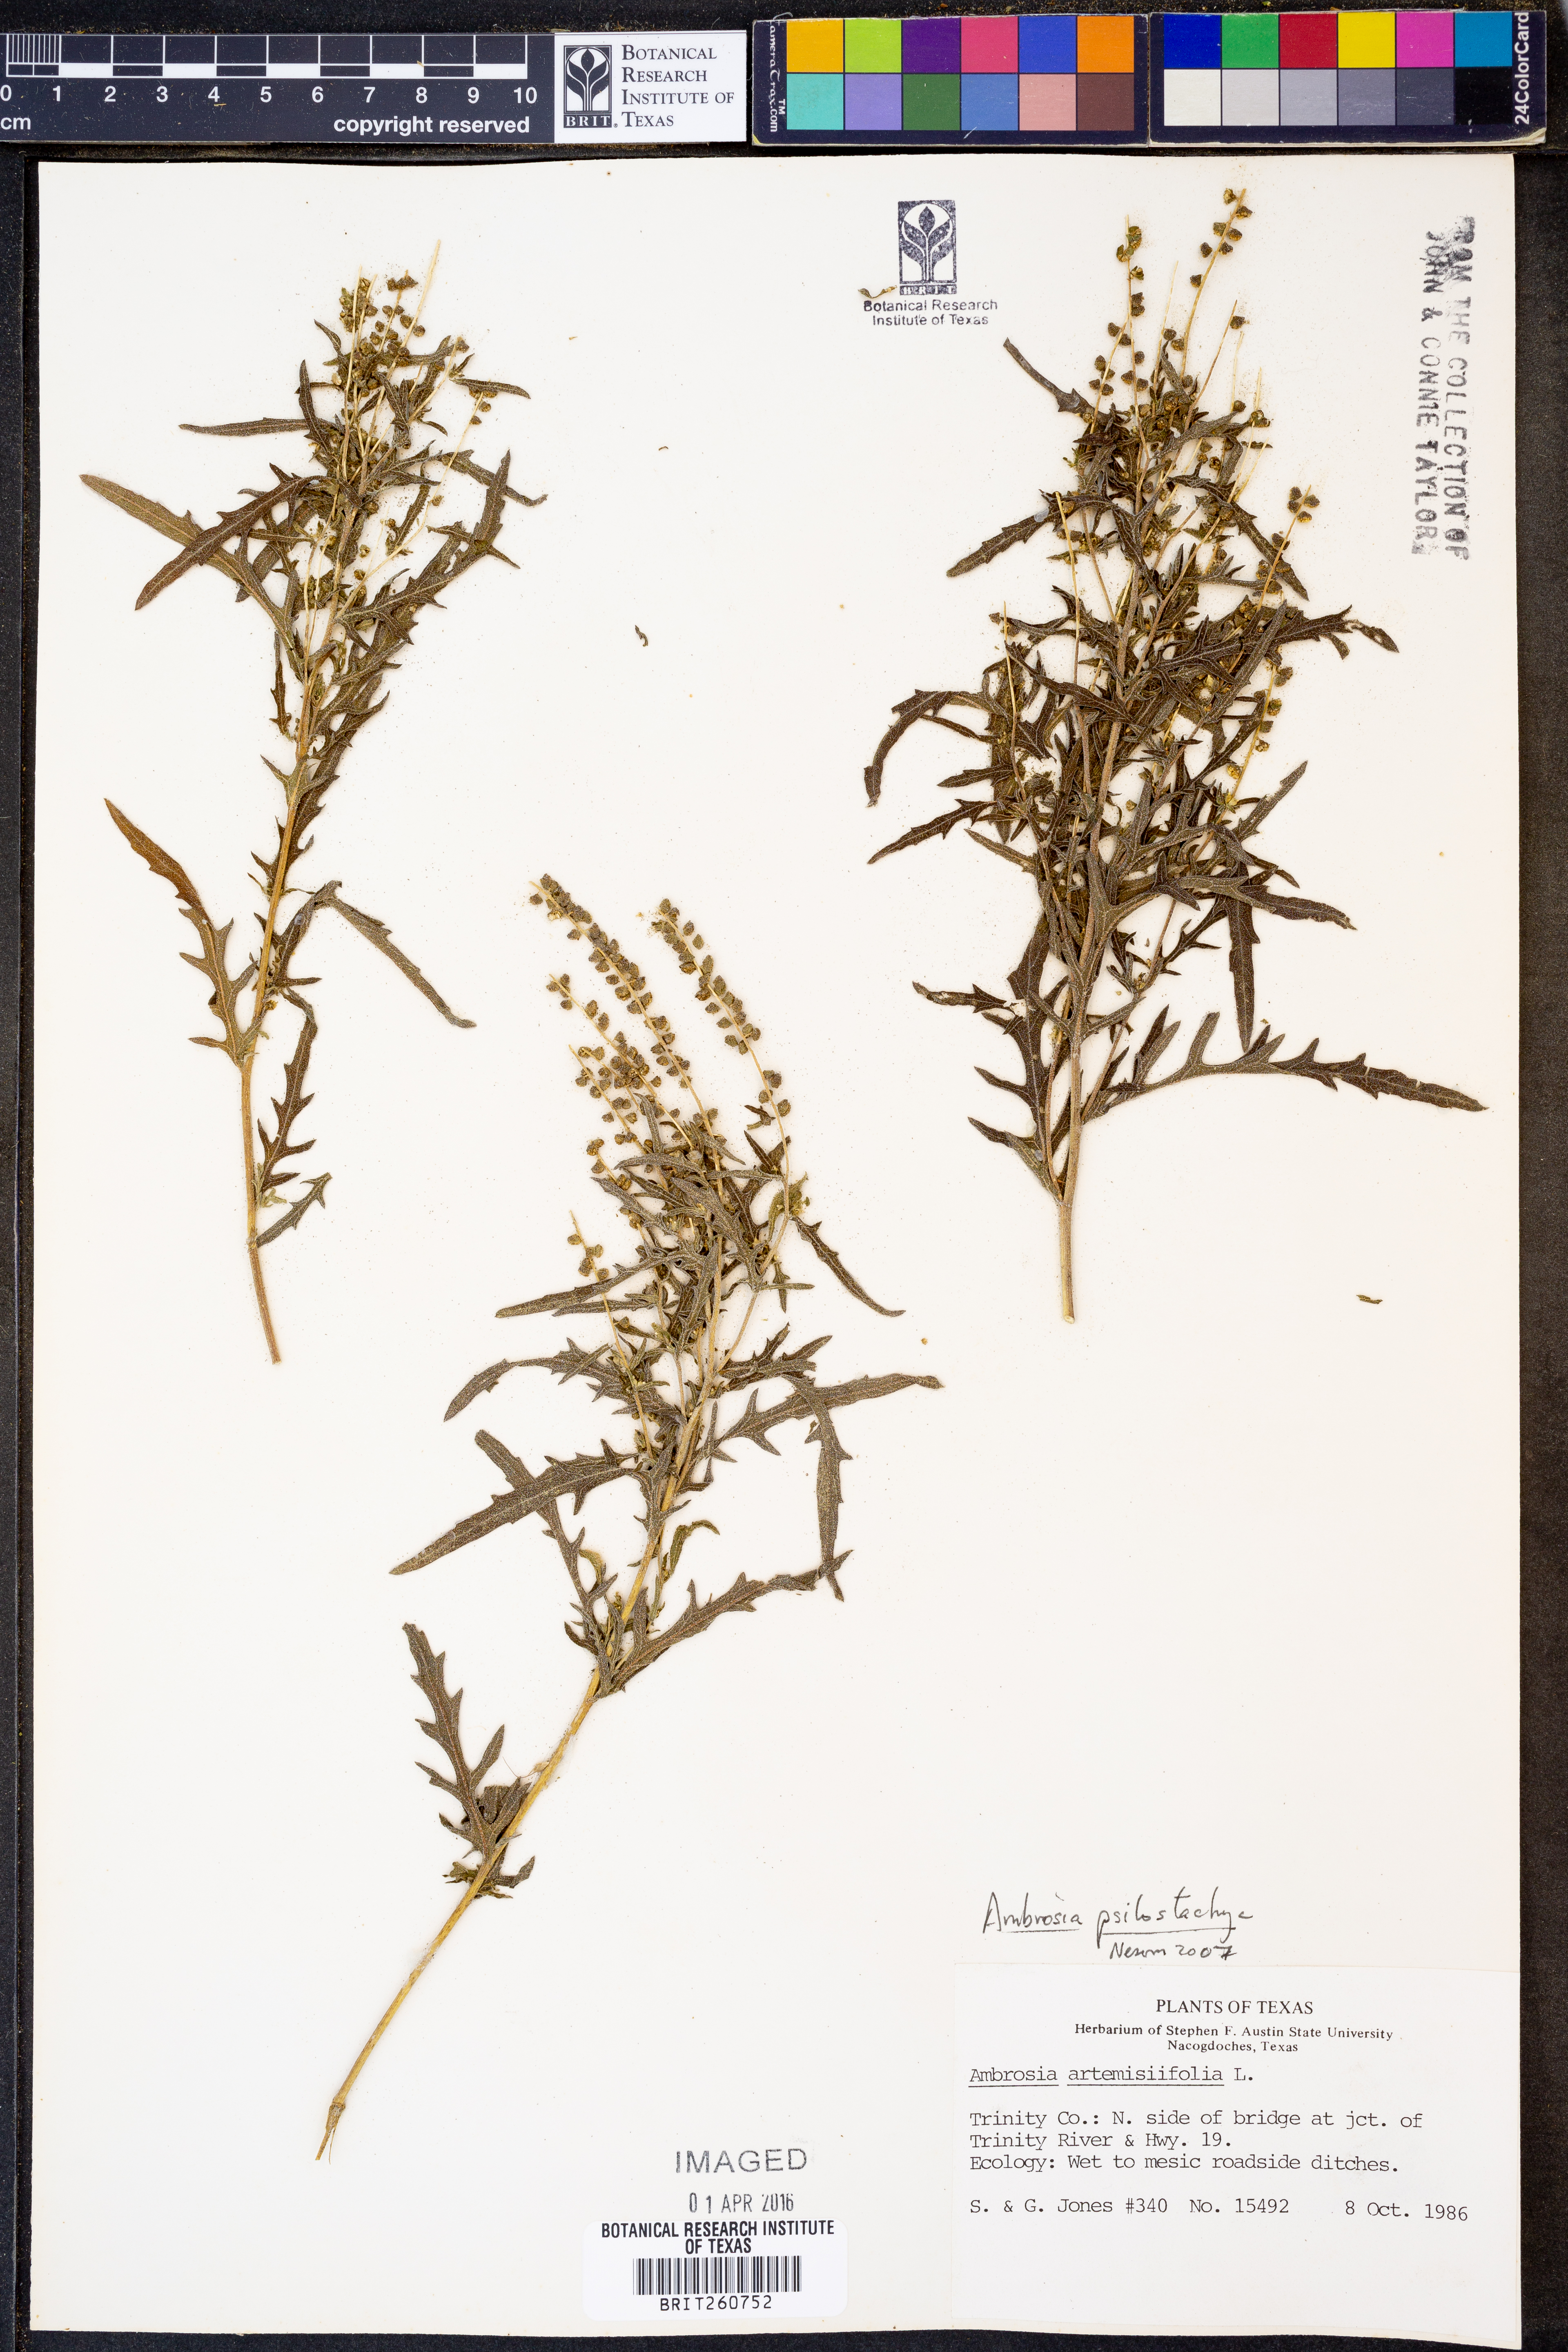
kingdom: Plantae
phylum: Tracheophyta
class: Magnoliopsida
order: Asterales
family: Asteraceae
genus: Ambrosia
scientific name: Ambrosia psilostachya
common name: Perennial ragweed
